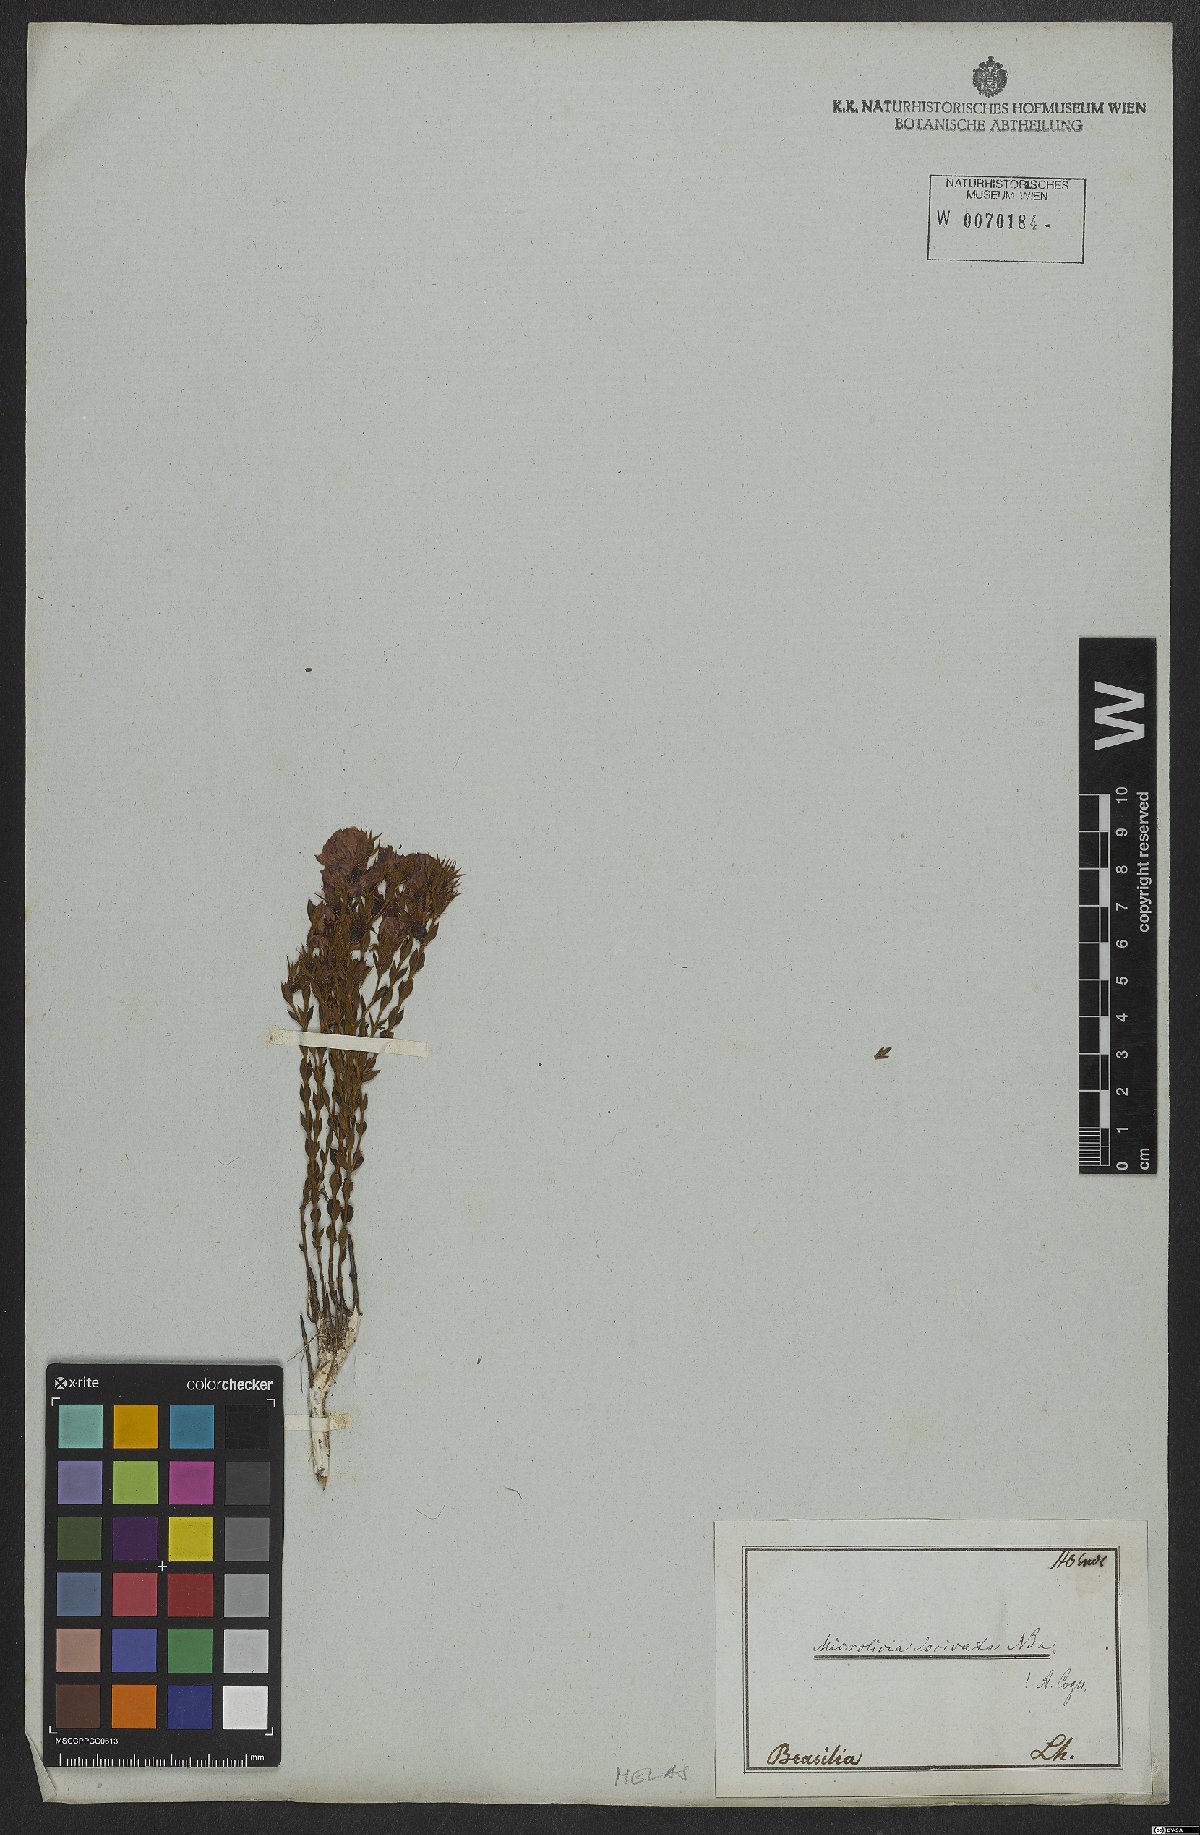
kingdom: Plantae
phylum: Tracheophyta
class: Magnoliopsida
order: Myrtales
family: Melastomataceae
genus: Microlicia
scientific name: Microlicia viminalis
